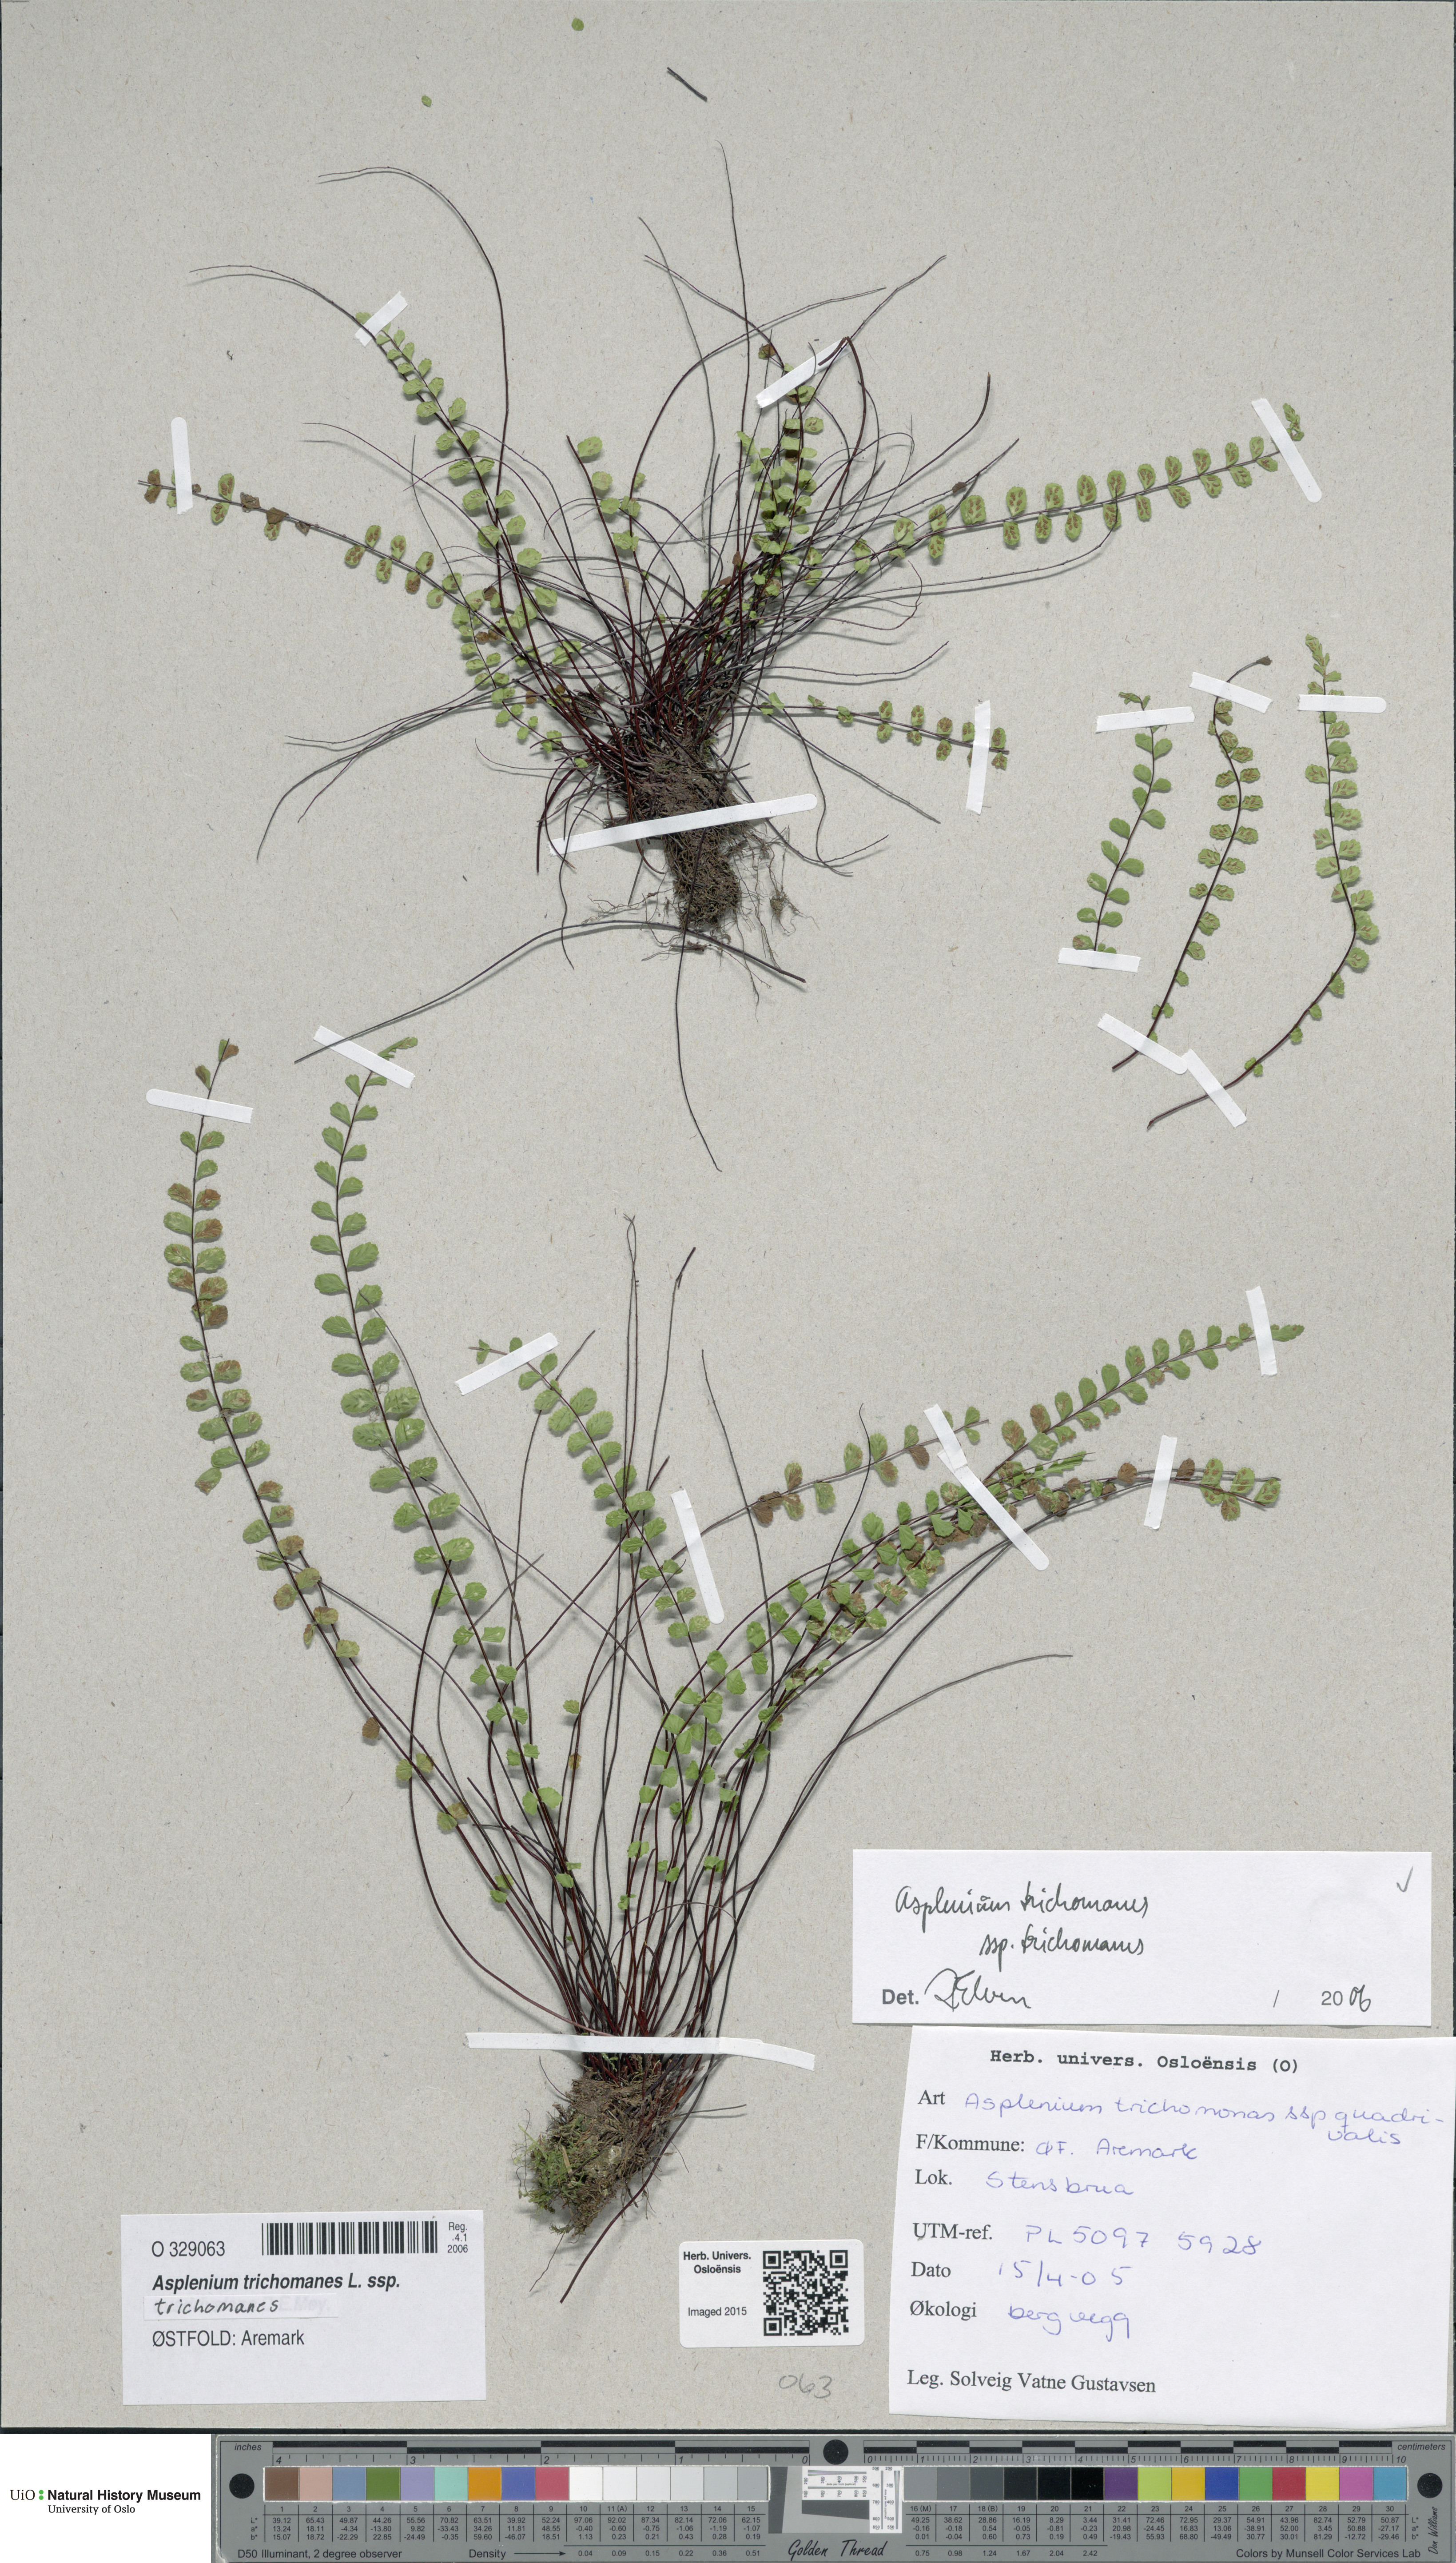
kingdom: Plantae
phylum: Tracheophyta
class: Polypodiopsida
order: Polypodiales
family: Aspleniaceae
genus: Asplenium
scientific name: Asplenium trichomanes
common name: Maidenhair spleenwort
